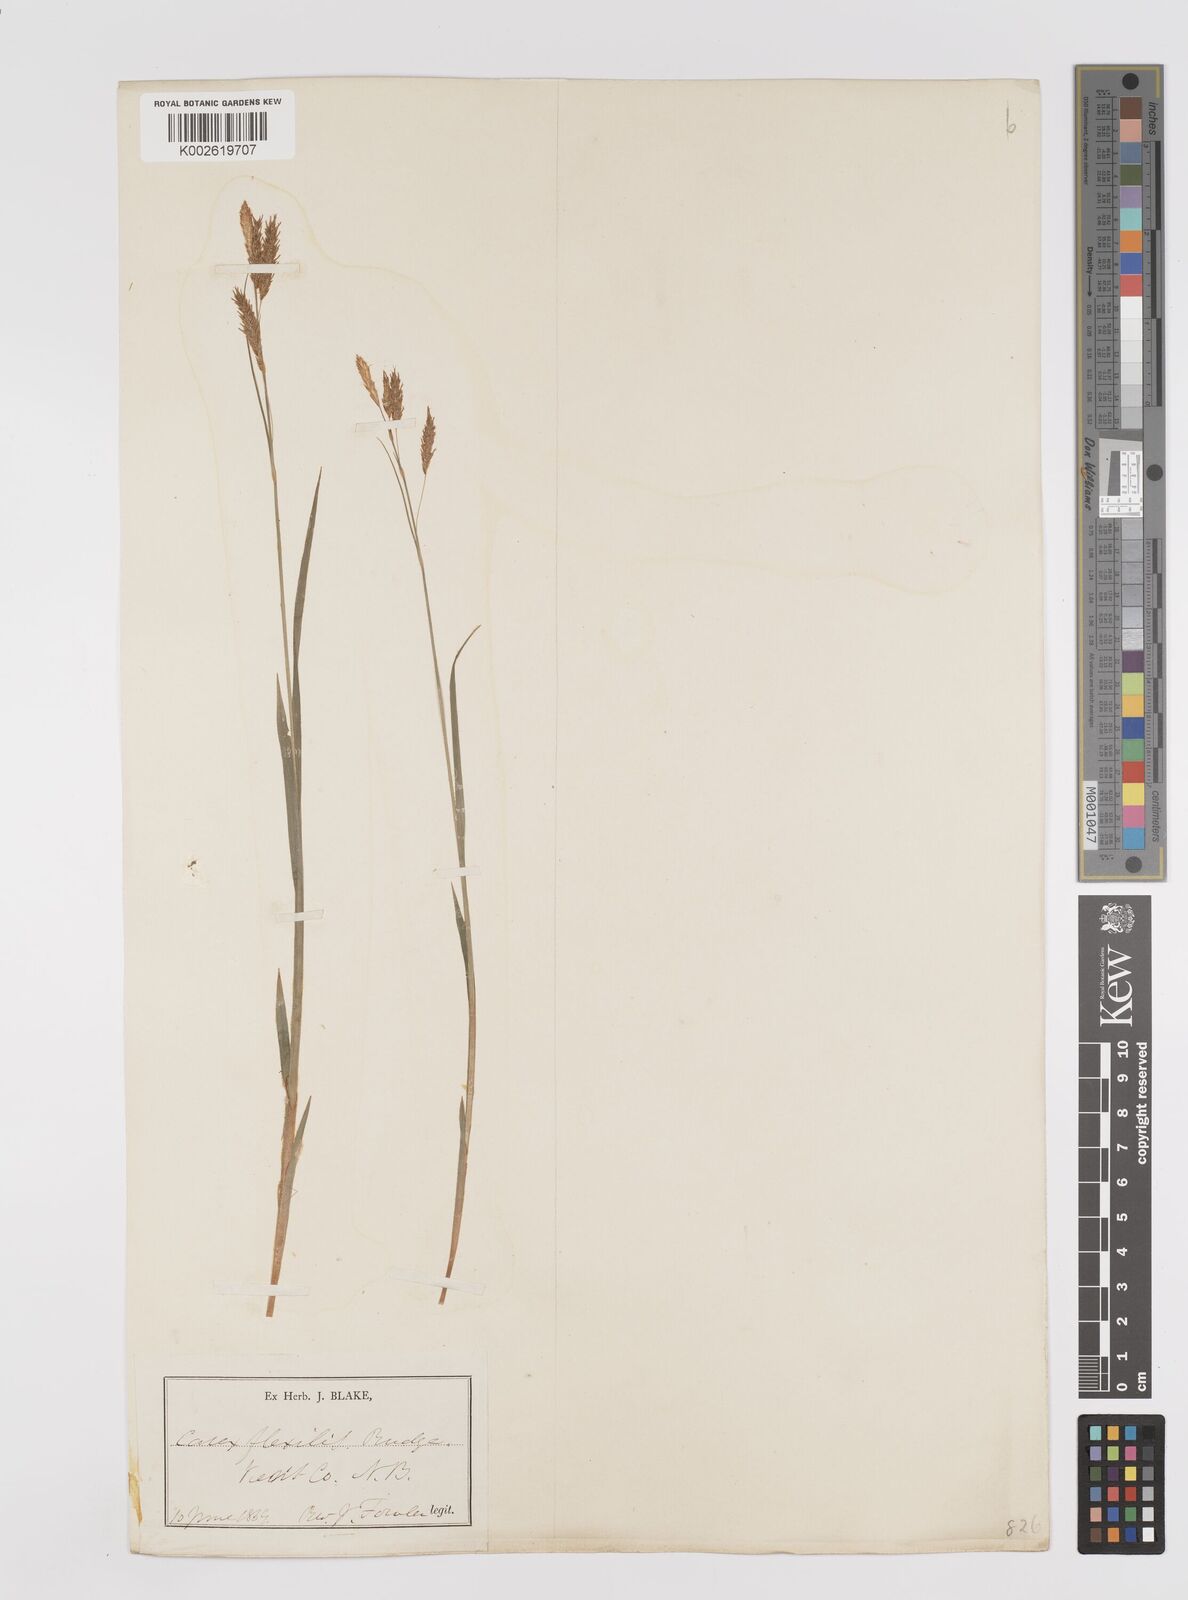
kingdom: Plantae
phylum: Tracheophyta
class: Liliopsida
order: Poales
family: Cyperaceae
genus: Carex
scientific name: Carex castanea
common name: Chestnut sedge
